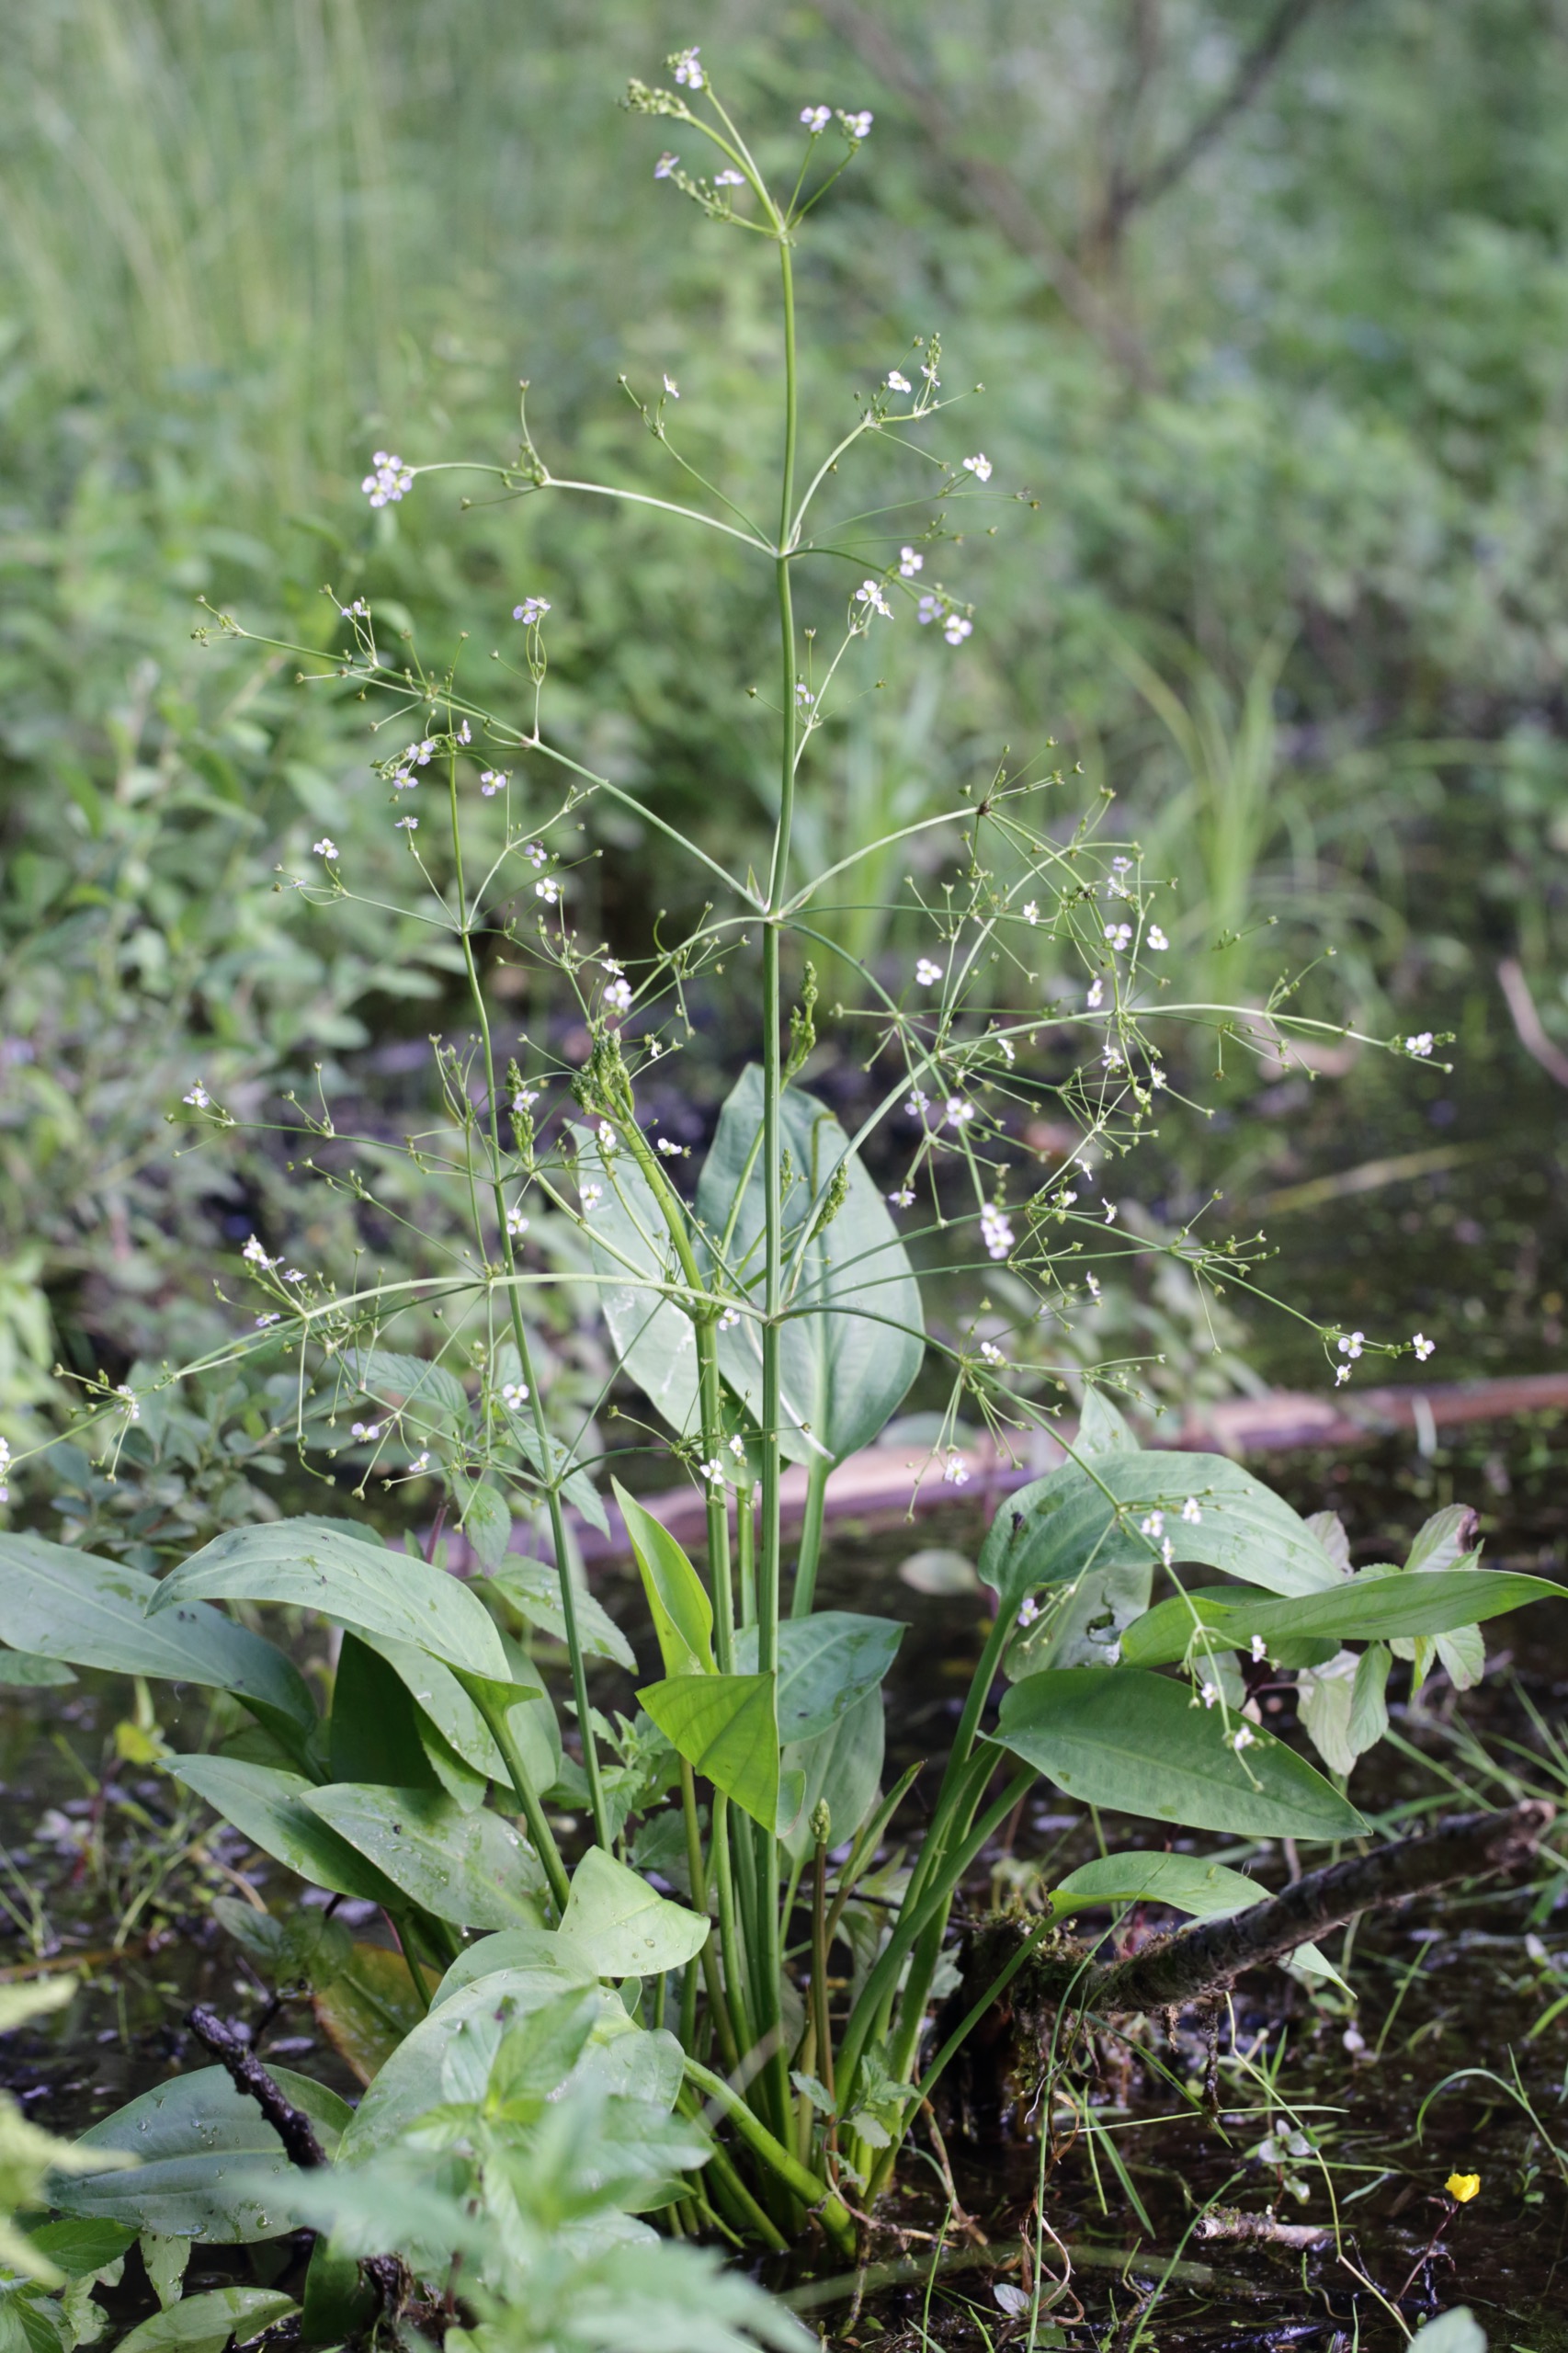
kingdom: Plantae
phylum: Tracheophyta
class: Liliopsida
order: Alismatales
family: Alismataceae
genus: Alisma
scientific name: Alisma plantago-aquatica
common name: Vejbred-skeblad
